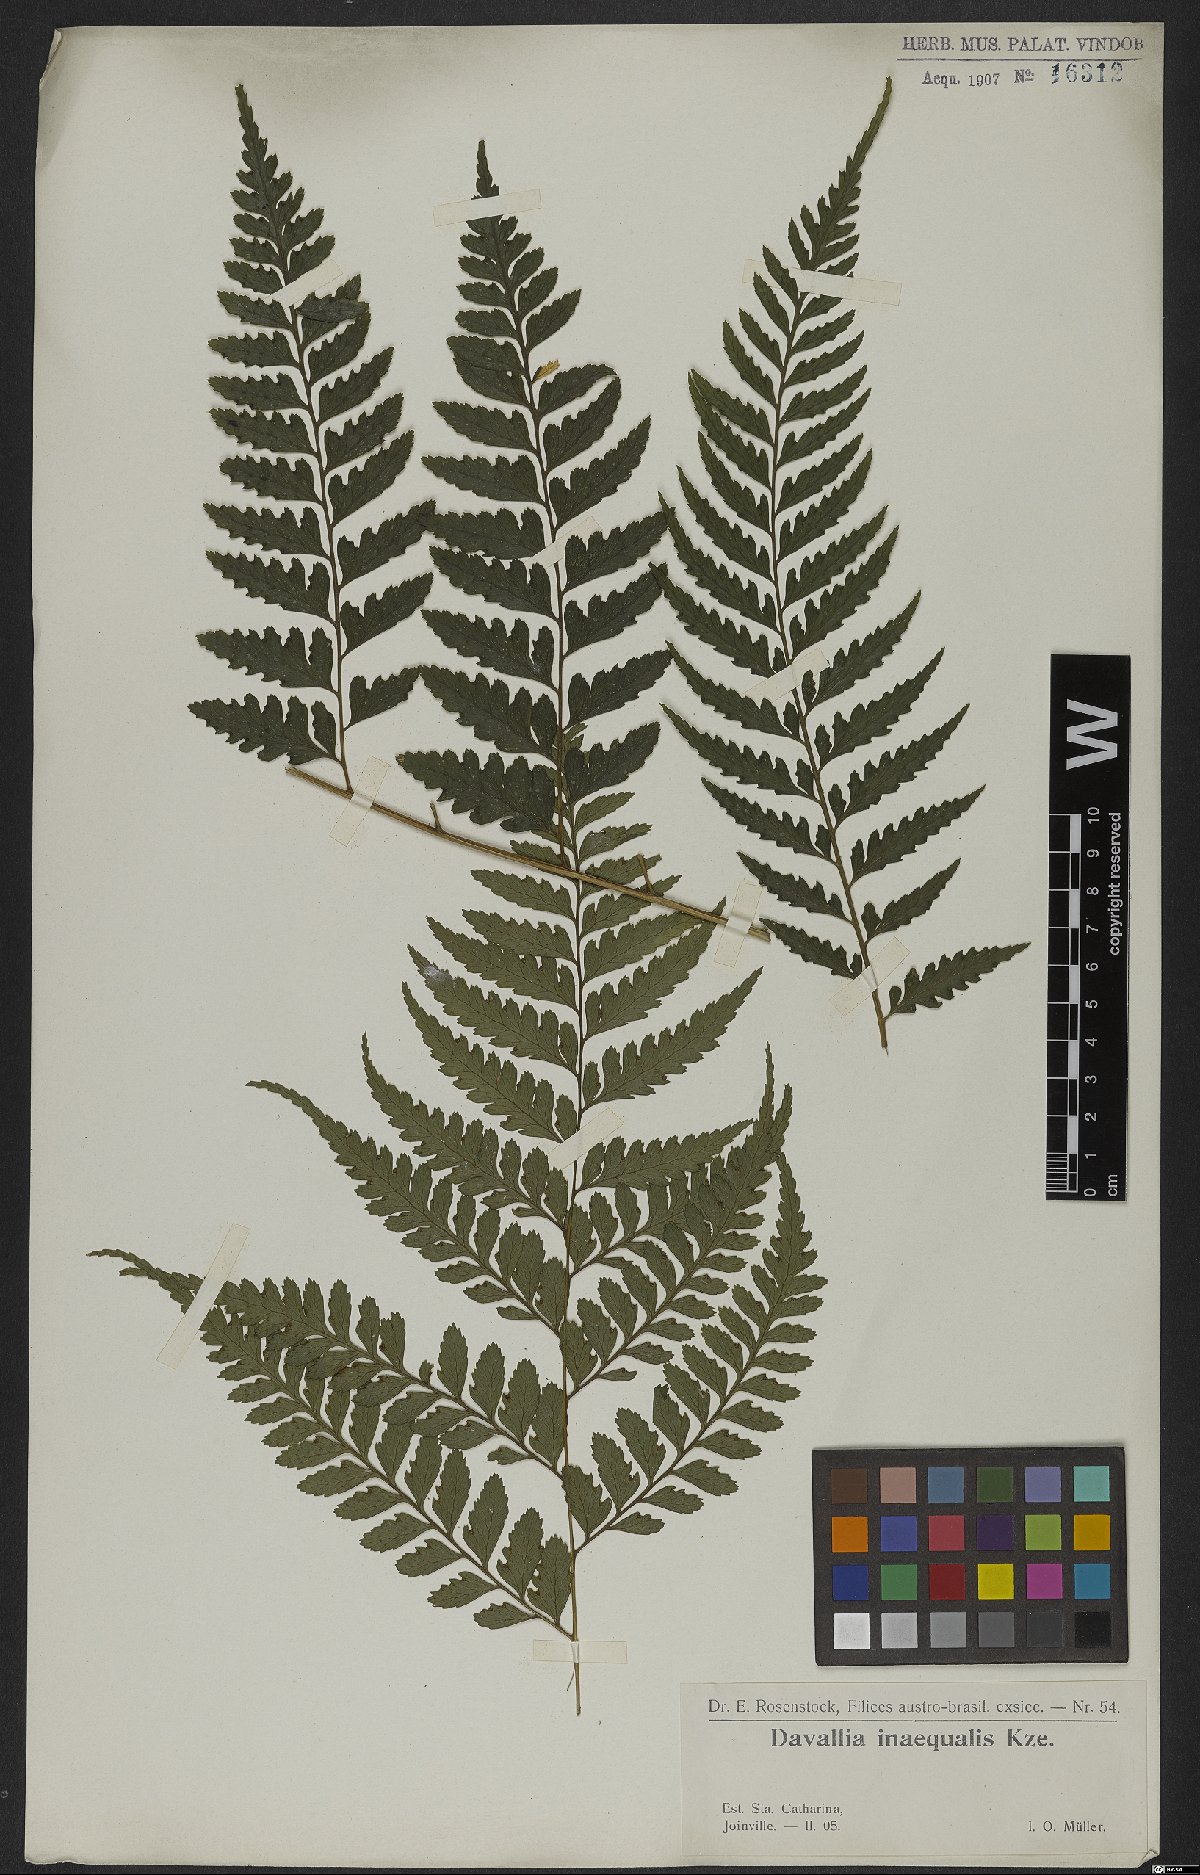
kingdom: Plantae
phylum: Tracheophyta
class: Polypodiopsida
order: Polypodiales
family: Saccolomataceae
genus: Saccoloma
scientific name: Saccoloma inaequale
